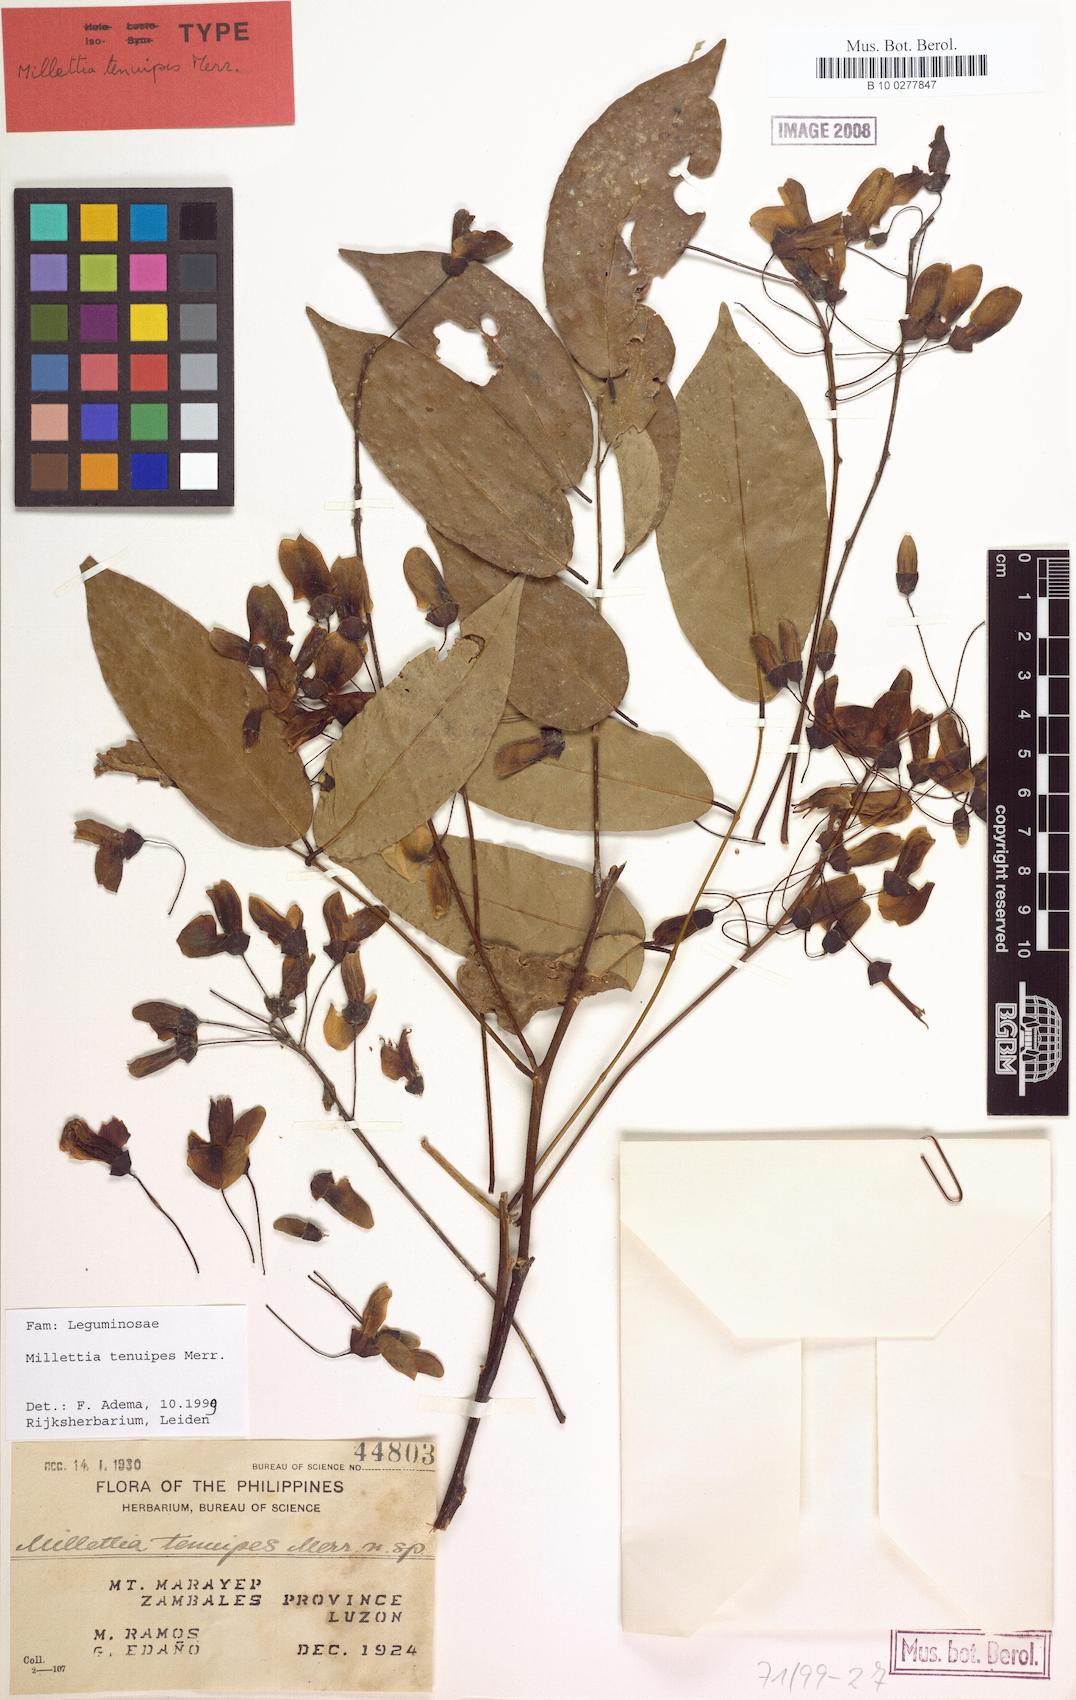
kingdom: Plantae
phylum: Tracheophyta
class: Magnoliopsida
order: Fabales
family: Fabaceae
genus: Millettia
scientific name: Millettia tenuipes
